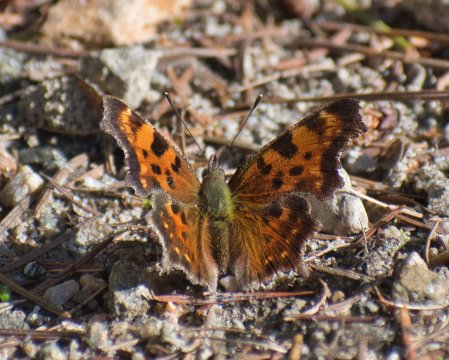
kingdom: Animalia
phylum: Arthropoda
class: Insecta
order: Lepidoptera
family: Nymphalidae
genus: Polygonia
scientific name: Polygonia faunus
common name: Green Comma
